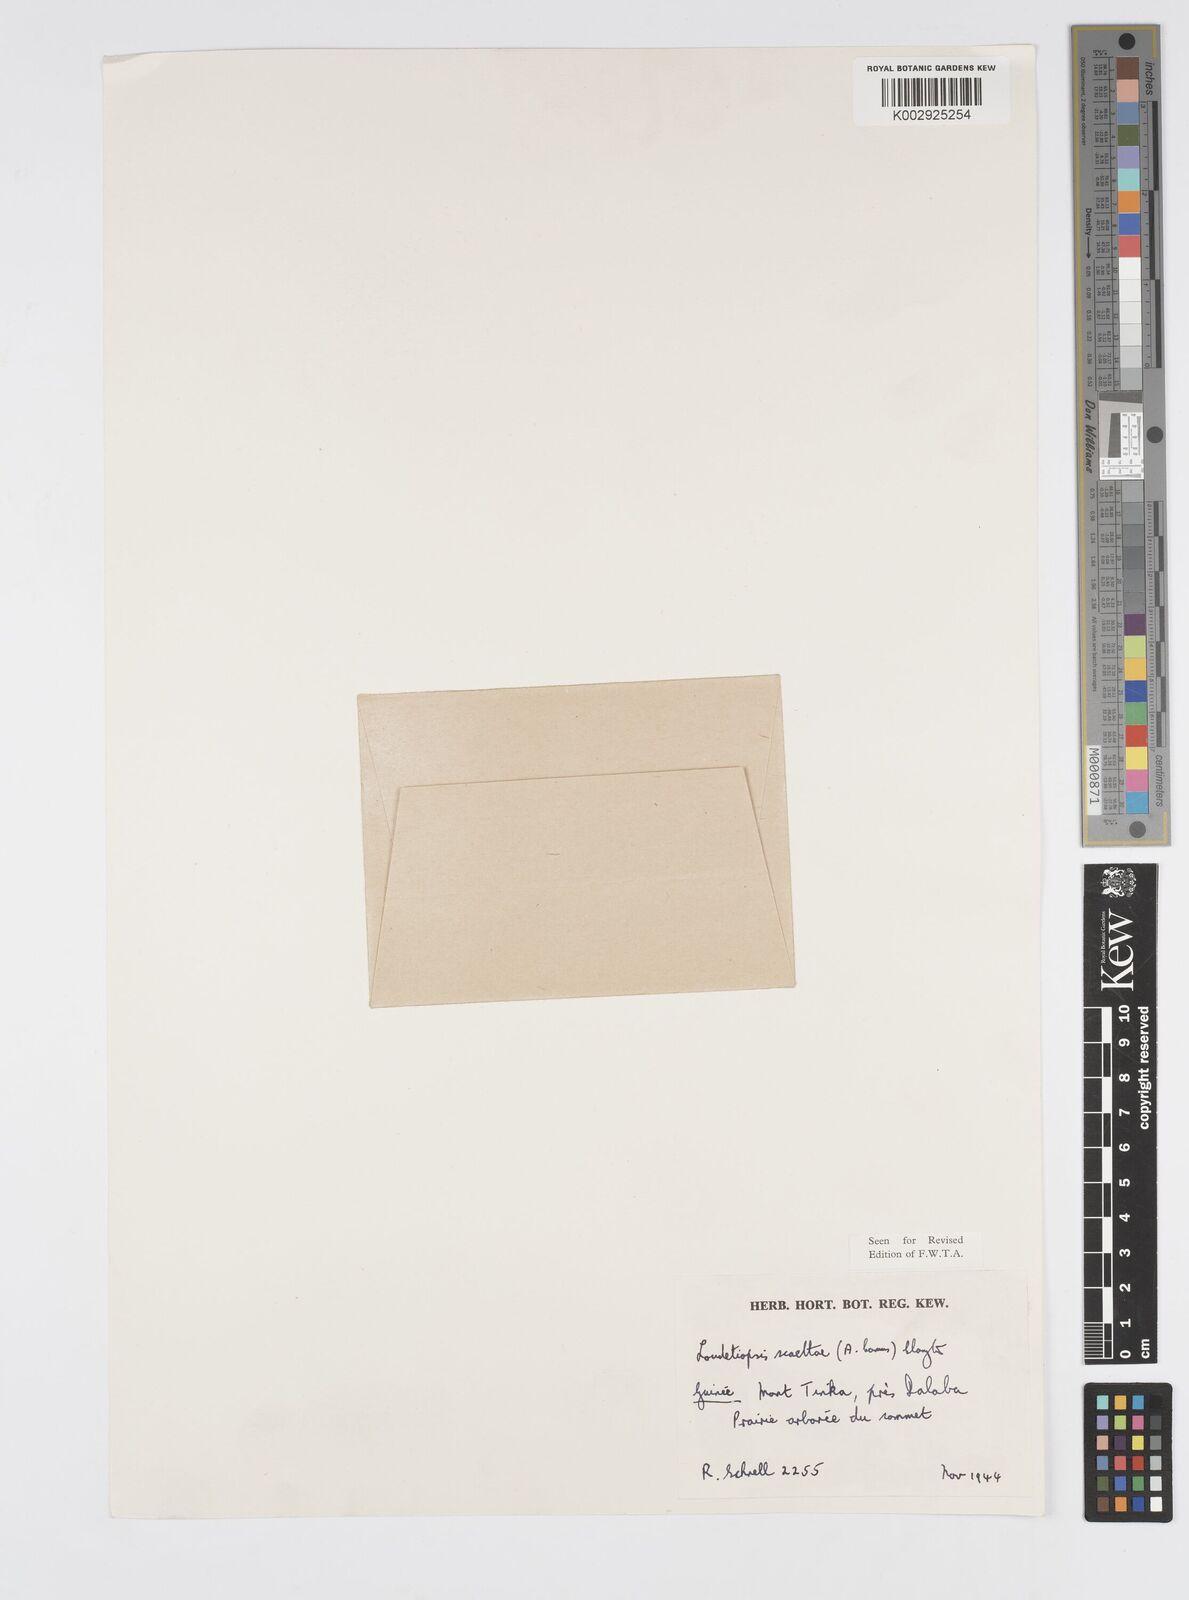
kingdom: Plantae
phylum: Tracheophyta
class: Liliopsida
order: Poales
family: Poaceae
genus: Loudetiopsis
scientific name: Loudetiopsis scaettae
